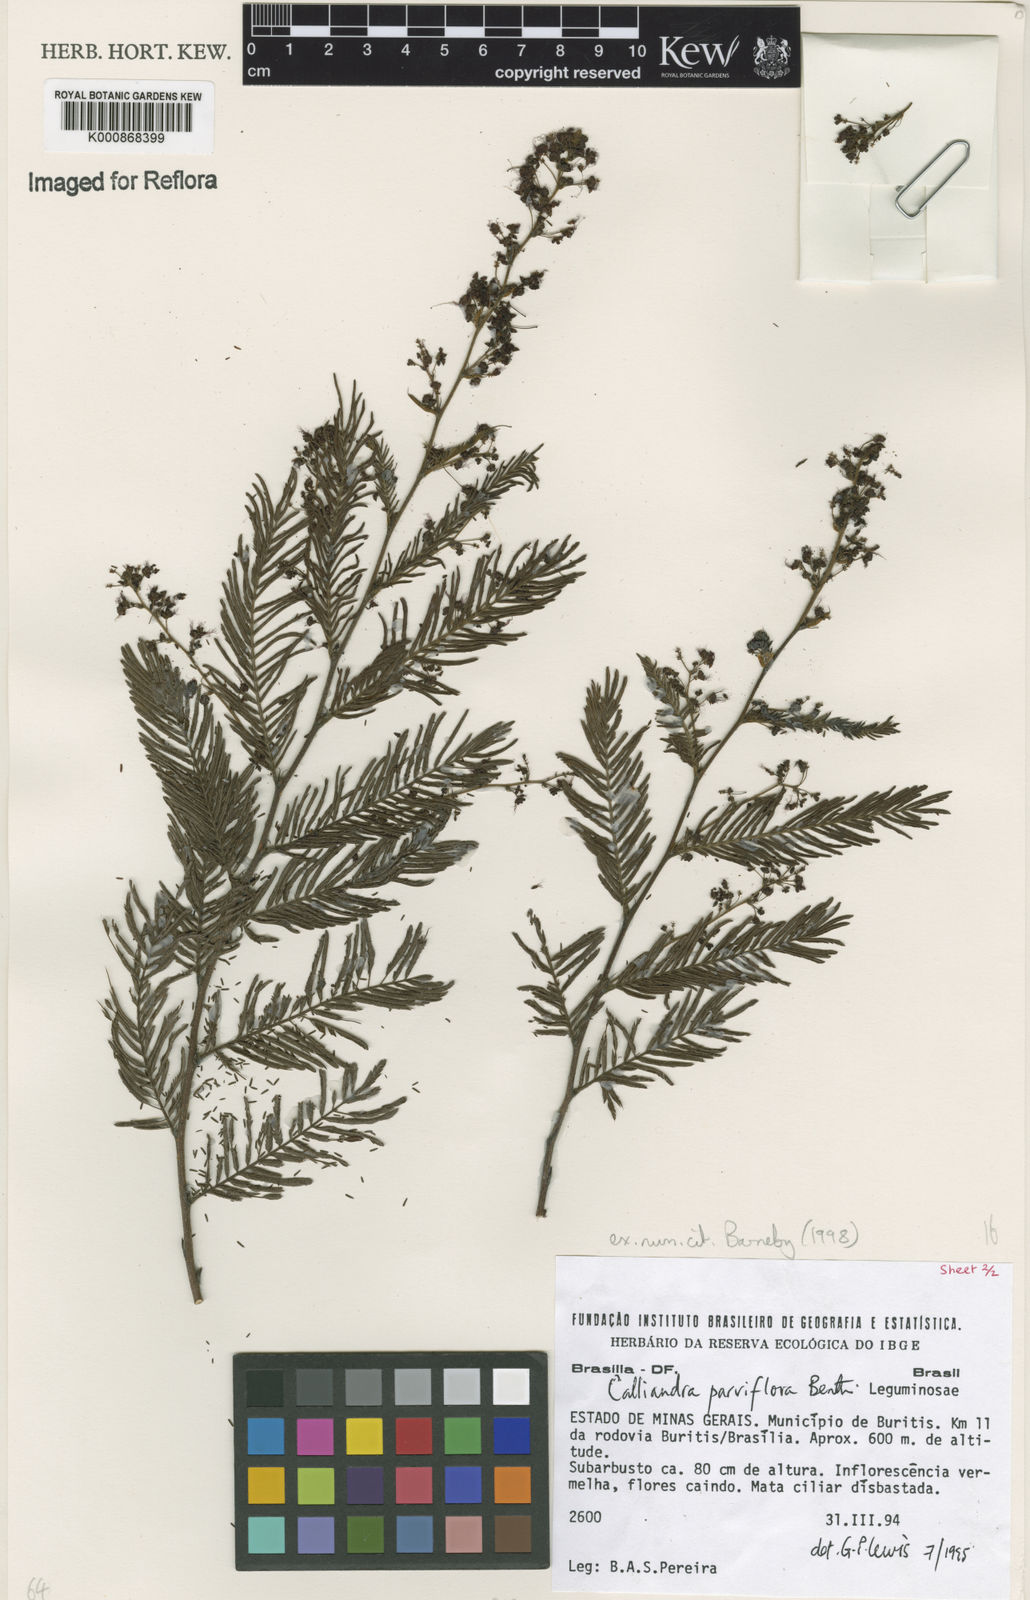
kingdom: Plantae
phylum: Tracheophyta
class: Magnoliopsida
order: Fabales
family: Fabaceae
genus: Calliandra
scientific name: Calliandra parviflora
